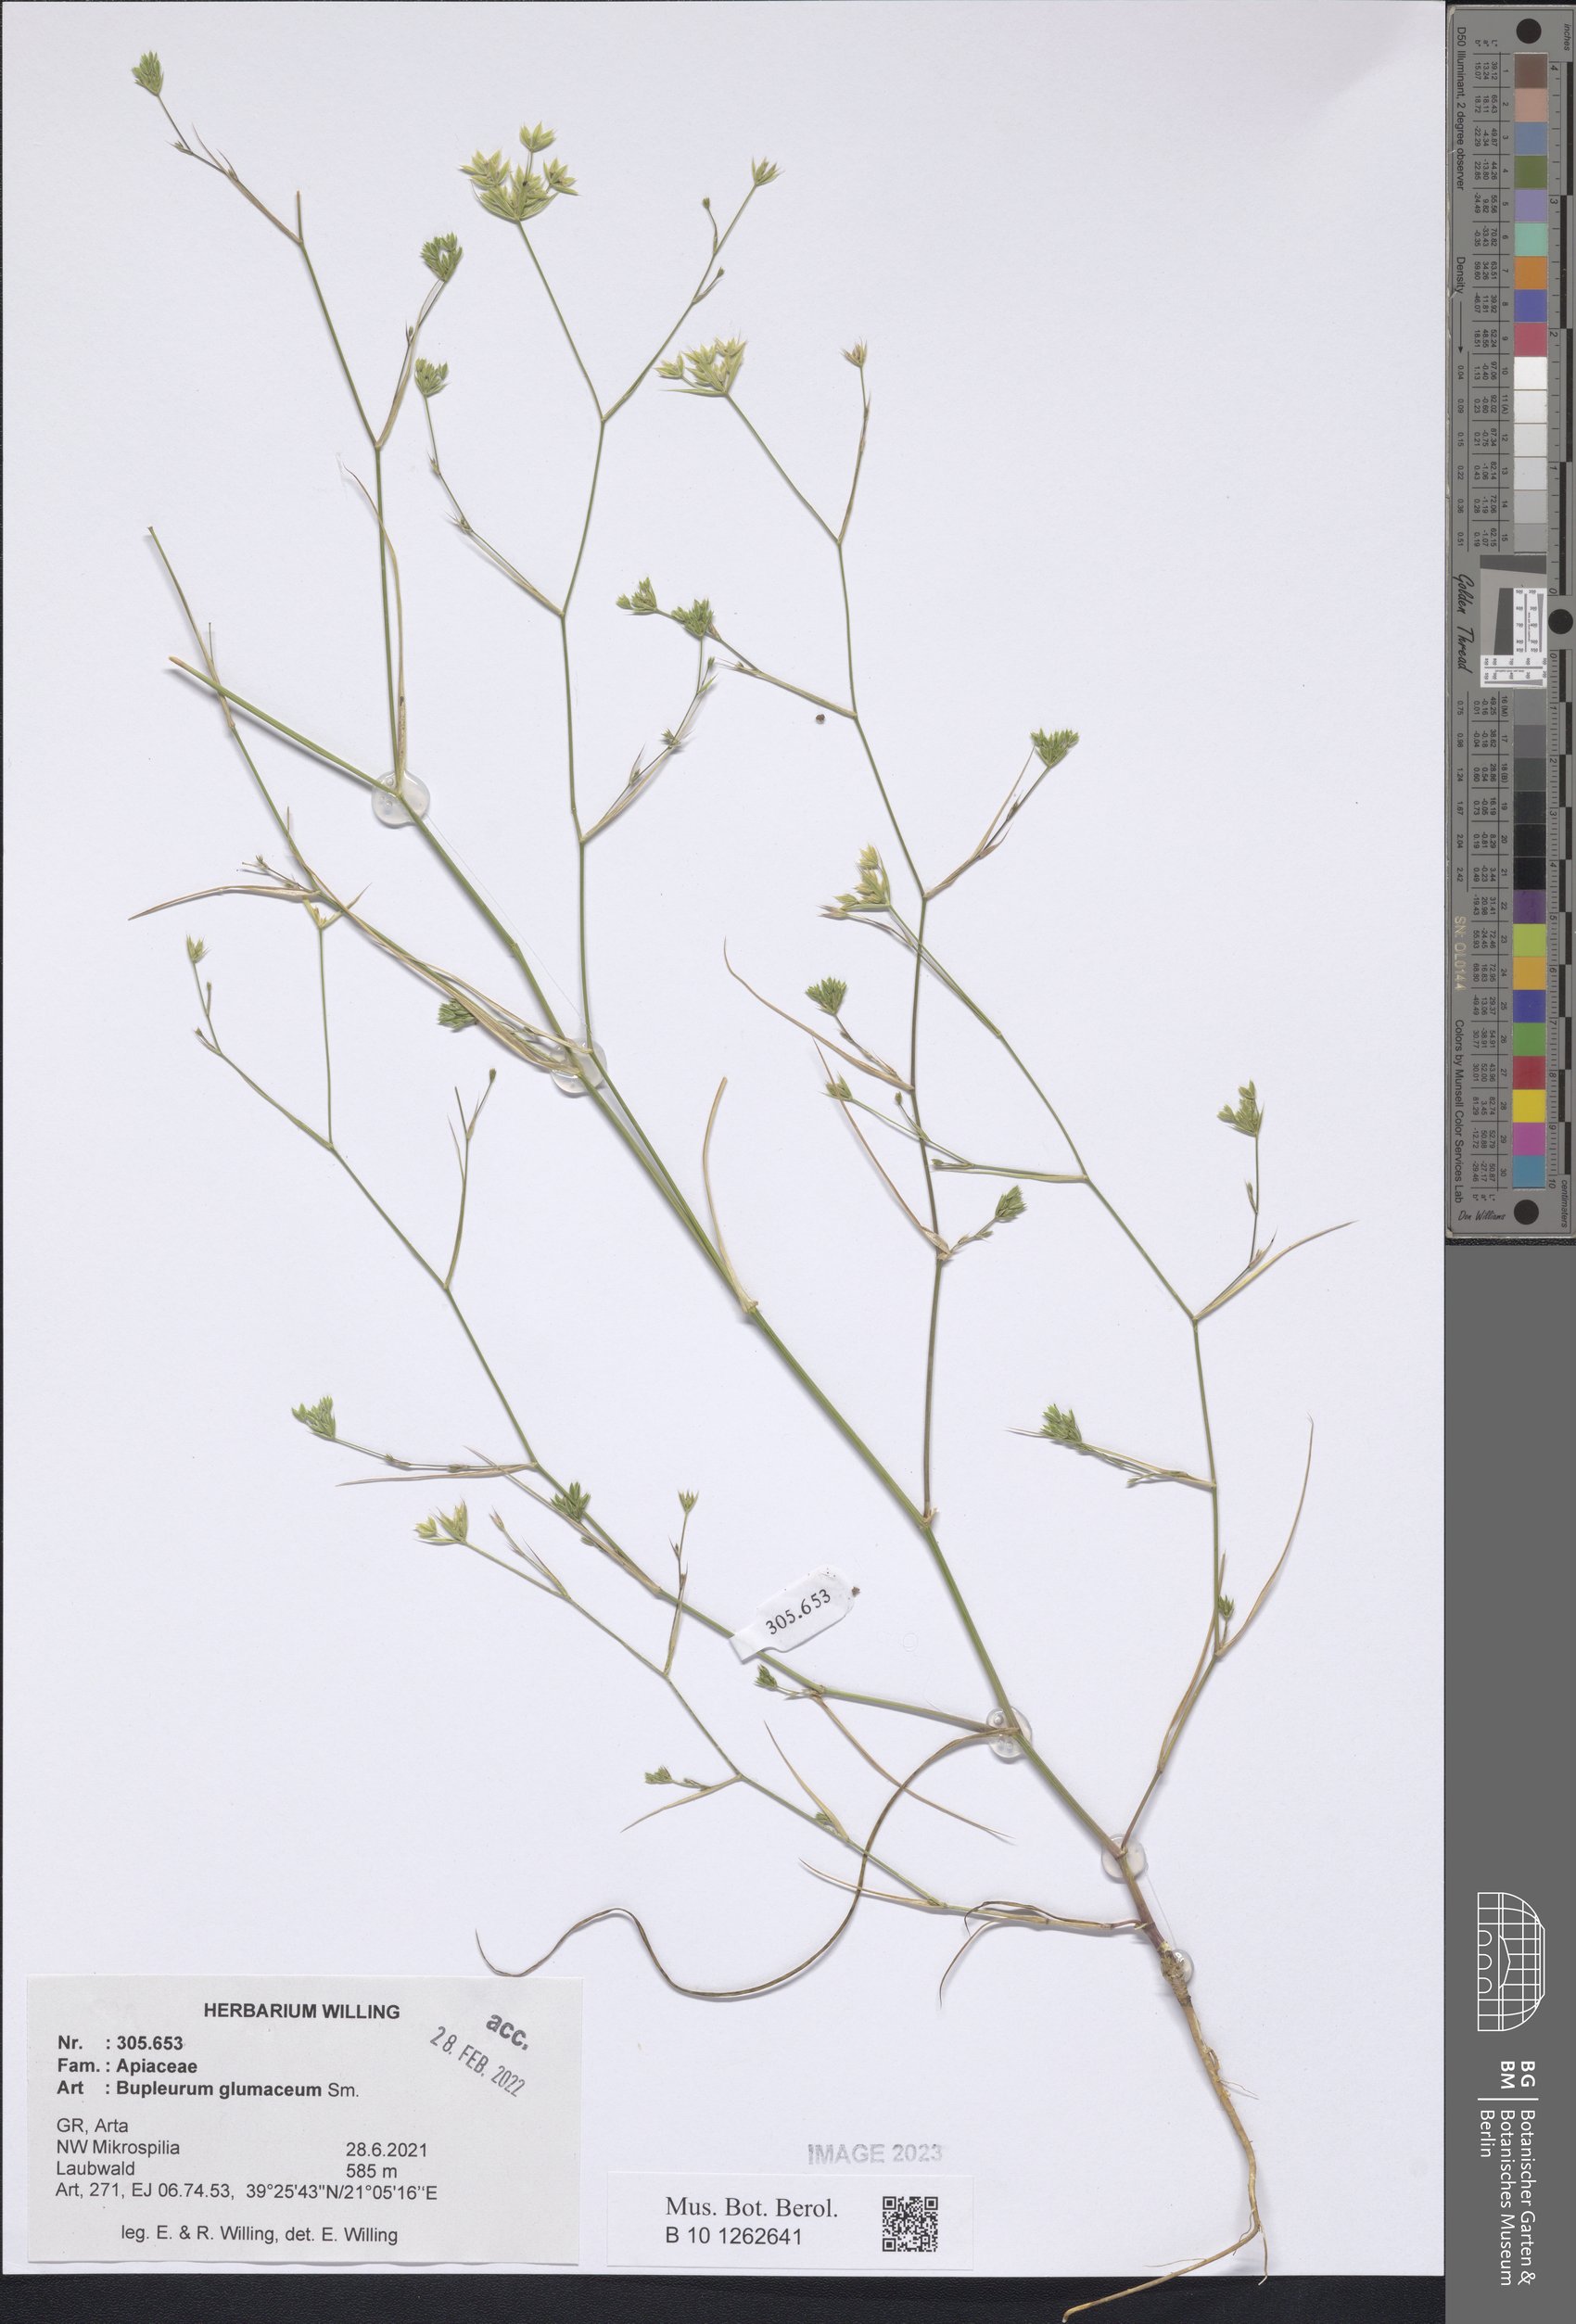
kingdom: Plantae
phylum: Tracheophyta
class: Magnoliopsida
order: Apiales
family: Apiaceae
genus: Bupleurum
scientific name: Bupleurum glumaceum
